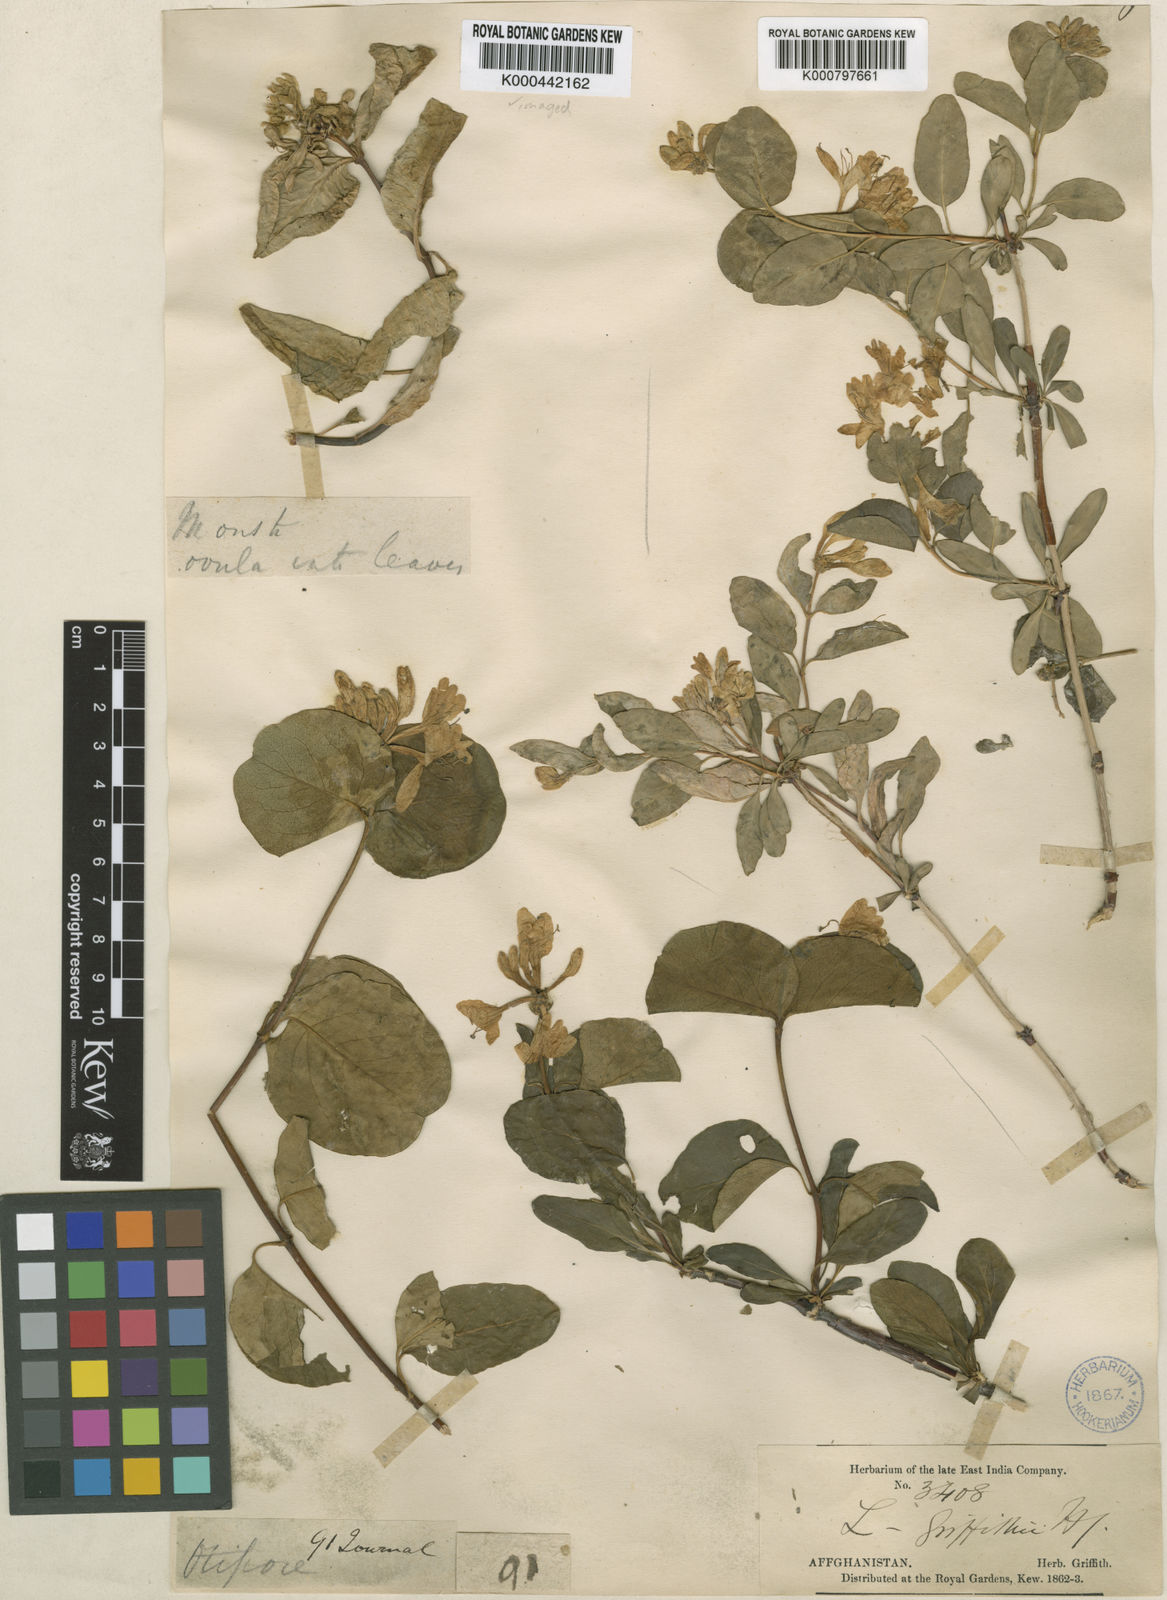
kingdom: Plantae
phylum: Tracheophyta
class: Magnoliopsida
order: Dipsacales
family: Caprifoliaceae
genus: Lonicera
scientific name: Lonicera griffithii
